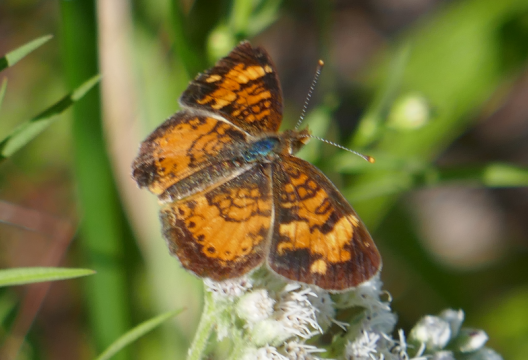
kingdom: Animalia
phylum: Arthropoda
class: Insecta
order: Lepidoptera
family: Nymphalidae
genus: Phyciodes
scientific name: Phyciodes
